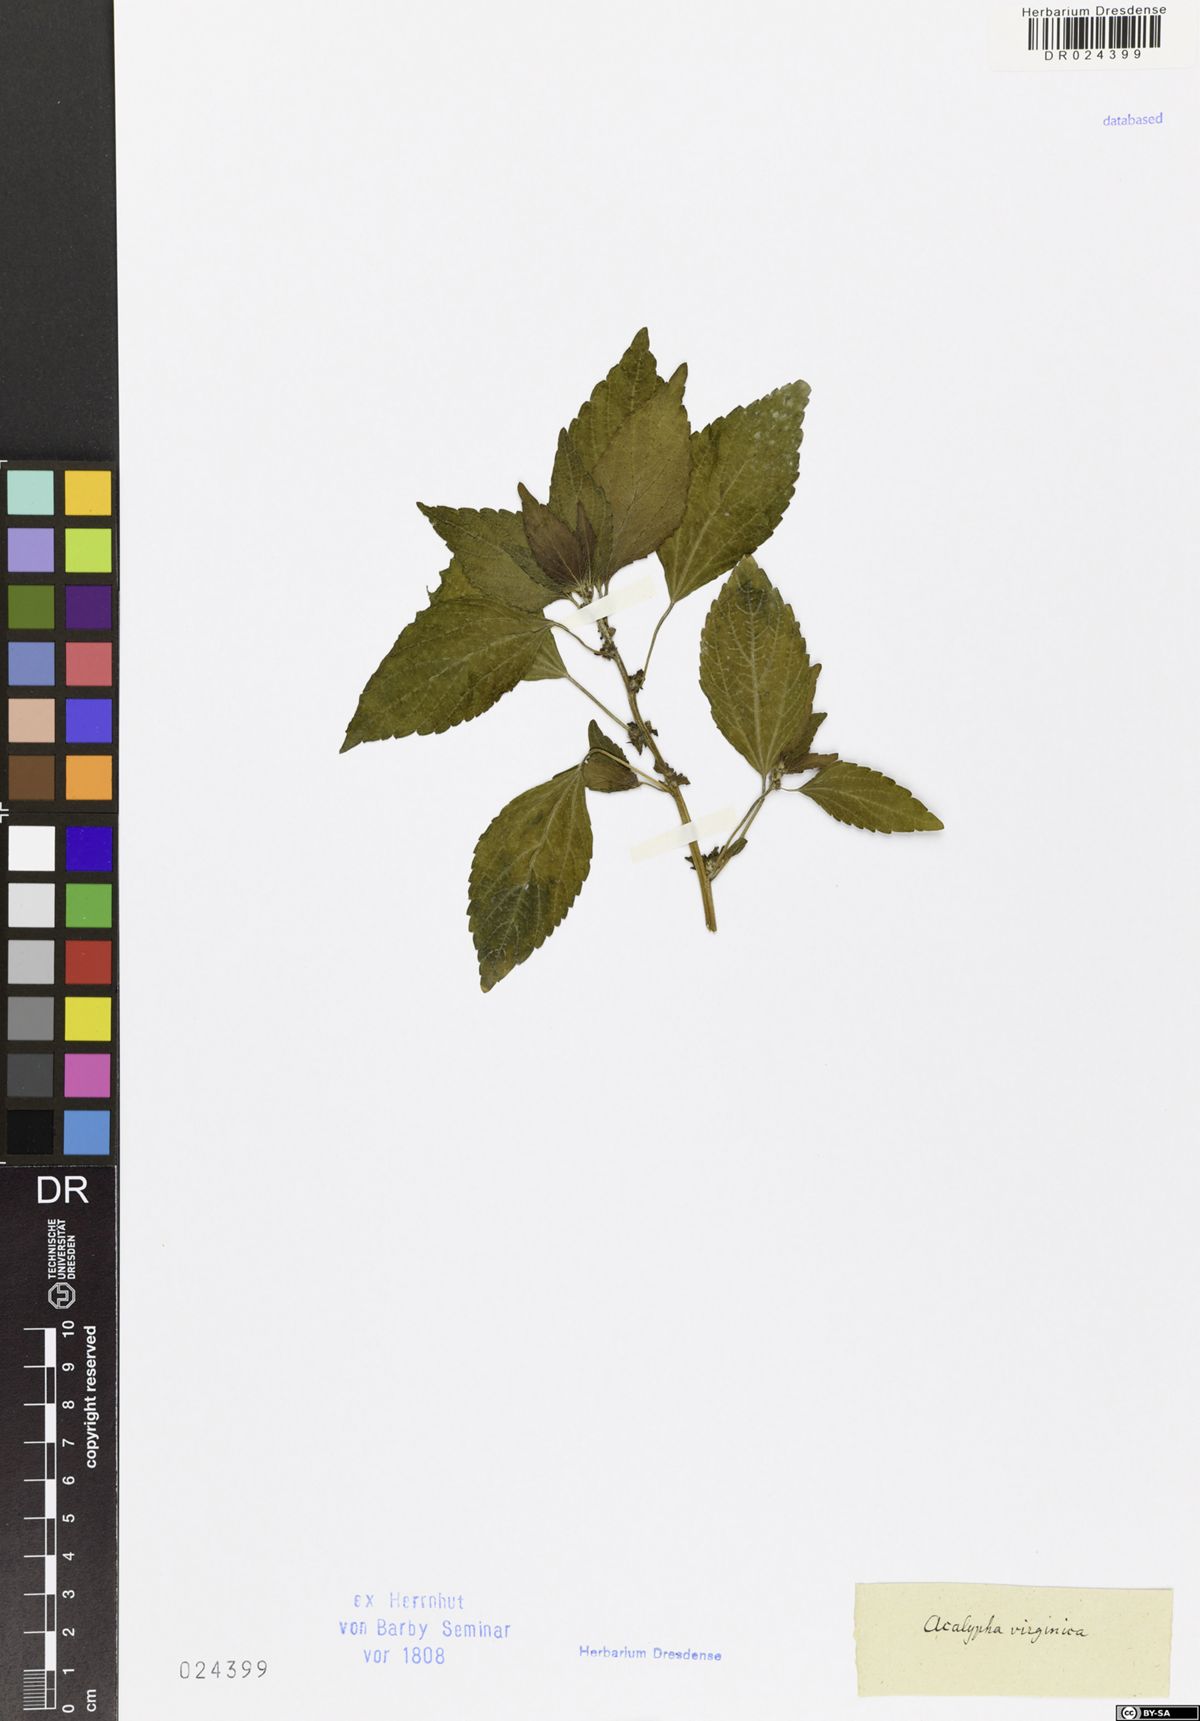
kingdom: Plantae
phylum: Tracheophyta
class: Magnoliopsida
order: Malpighiales
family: Euphorbiaceae
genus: Acalypha
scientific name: Acalypha rhomboidea
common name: Rhombic copperleaf
